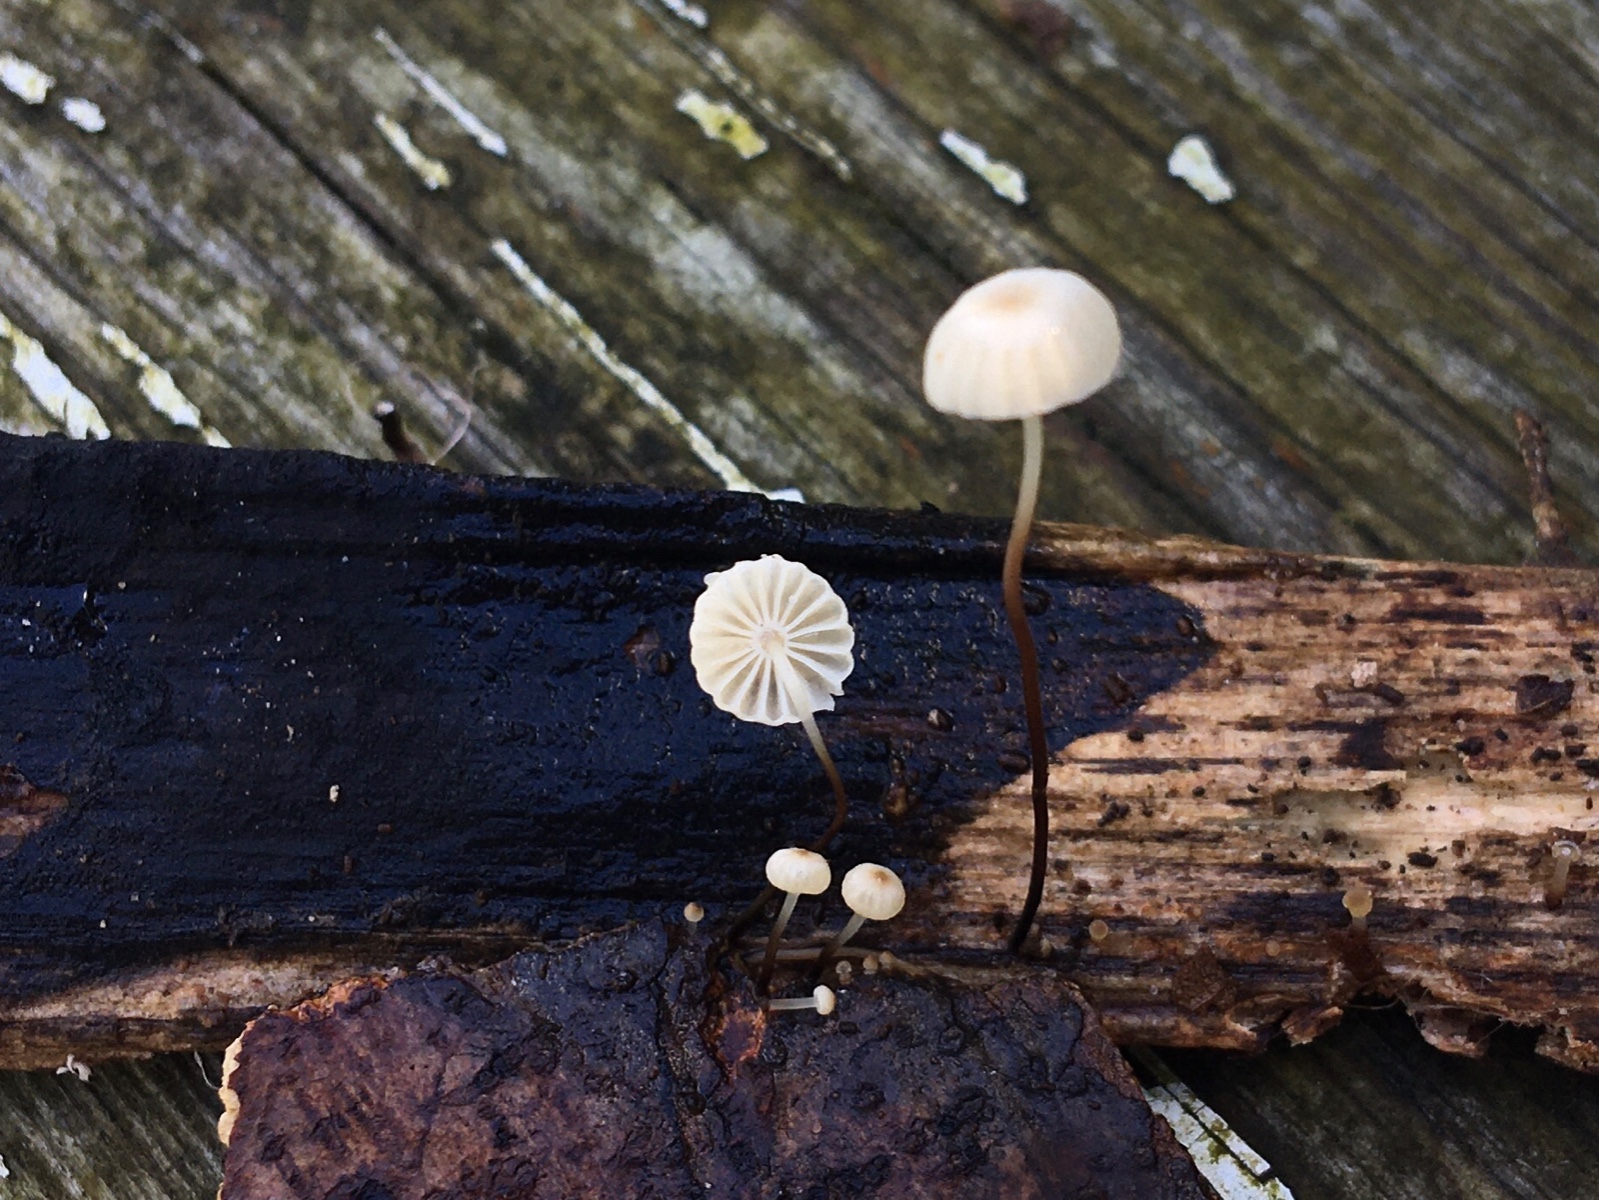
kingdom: Fungi
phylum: Basidiomycota
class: Agaricomycetes
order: Agaricales
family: Marasmiaceae
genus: Marasmius
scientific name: Marasmius rotula
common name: hjul-bruskhat
